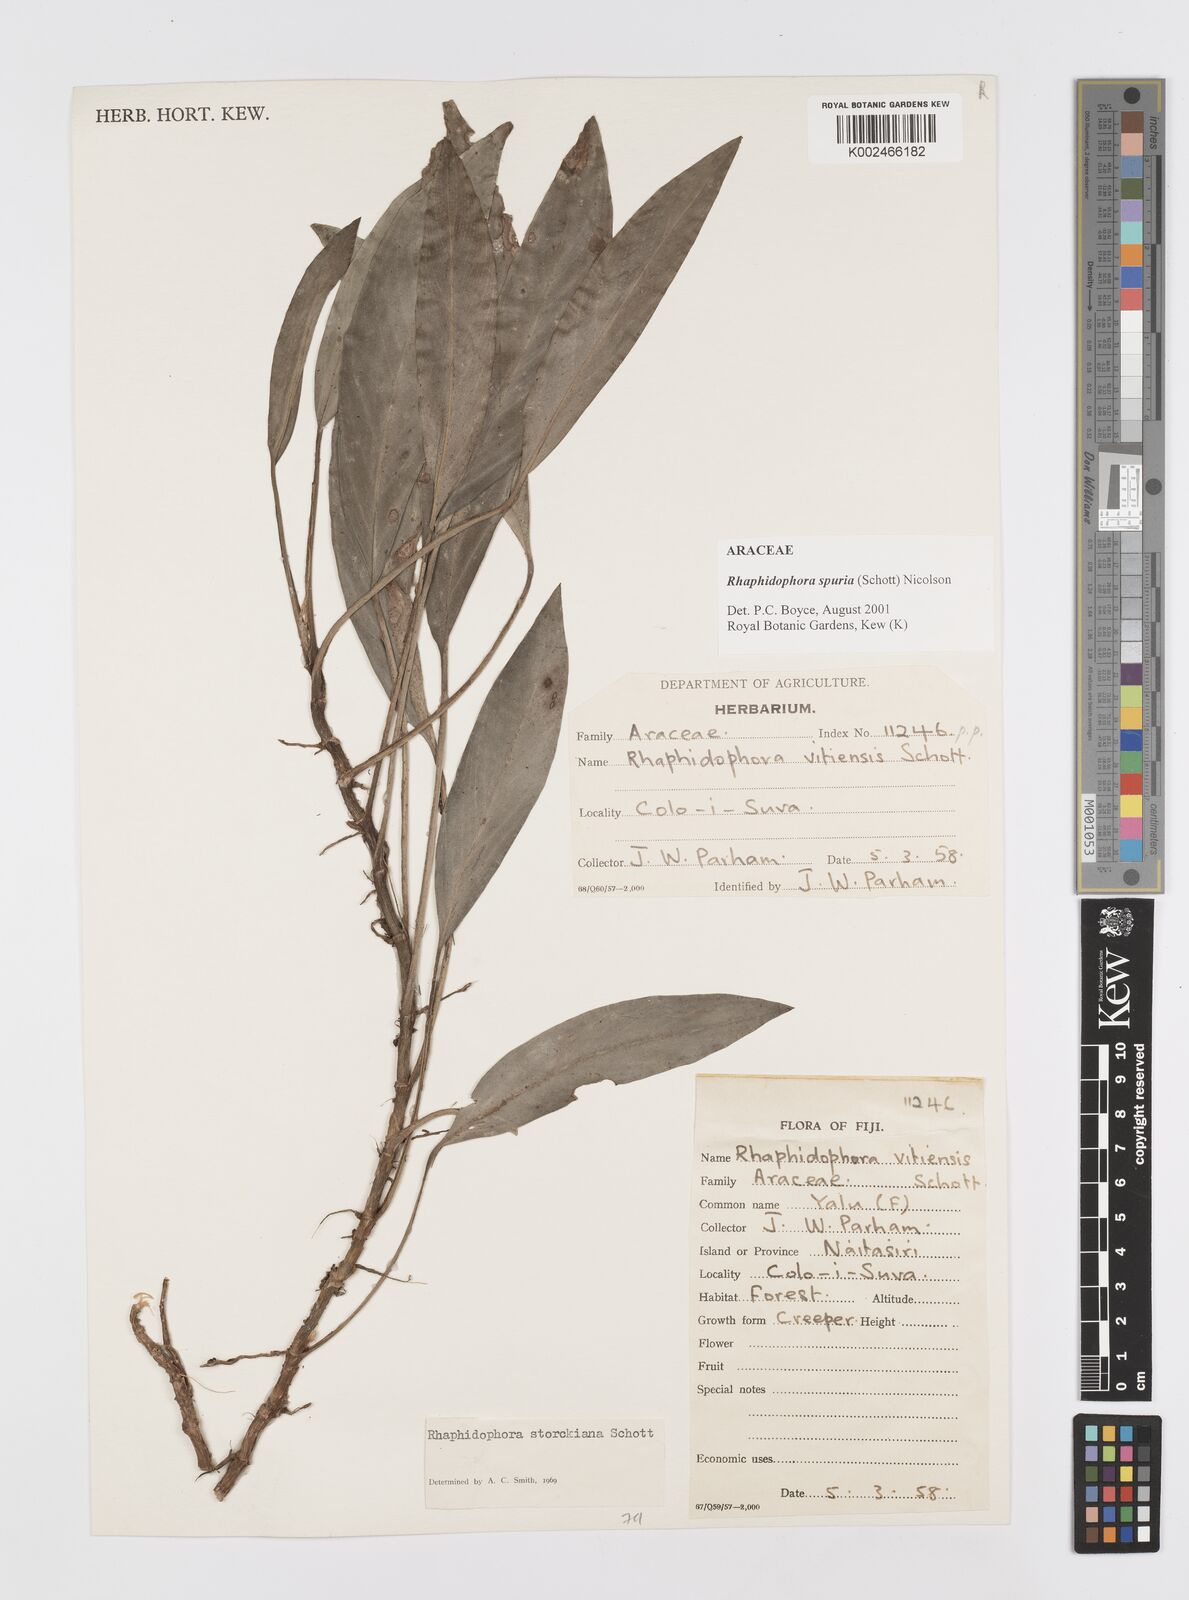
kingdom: Plantae
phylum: Tracheophyta
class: Liliopsida
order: Alismatales
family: Araceae
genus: Rhaphidophora
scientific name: Rhaphidophora spuria
